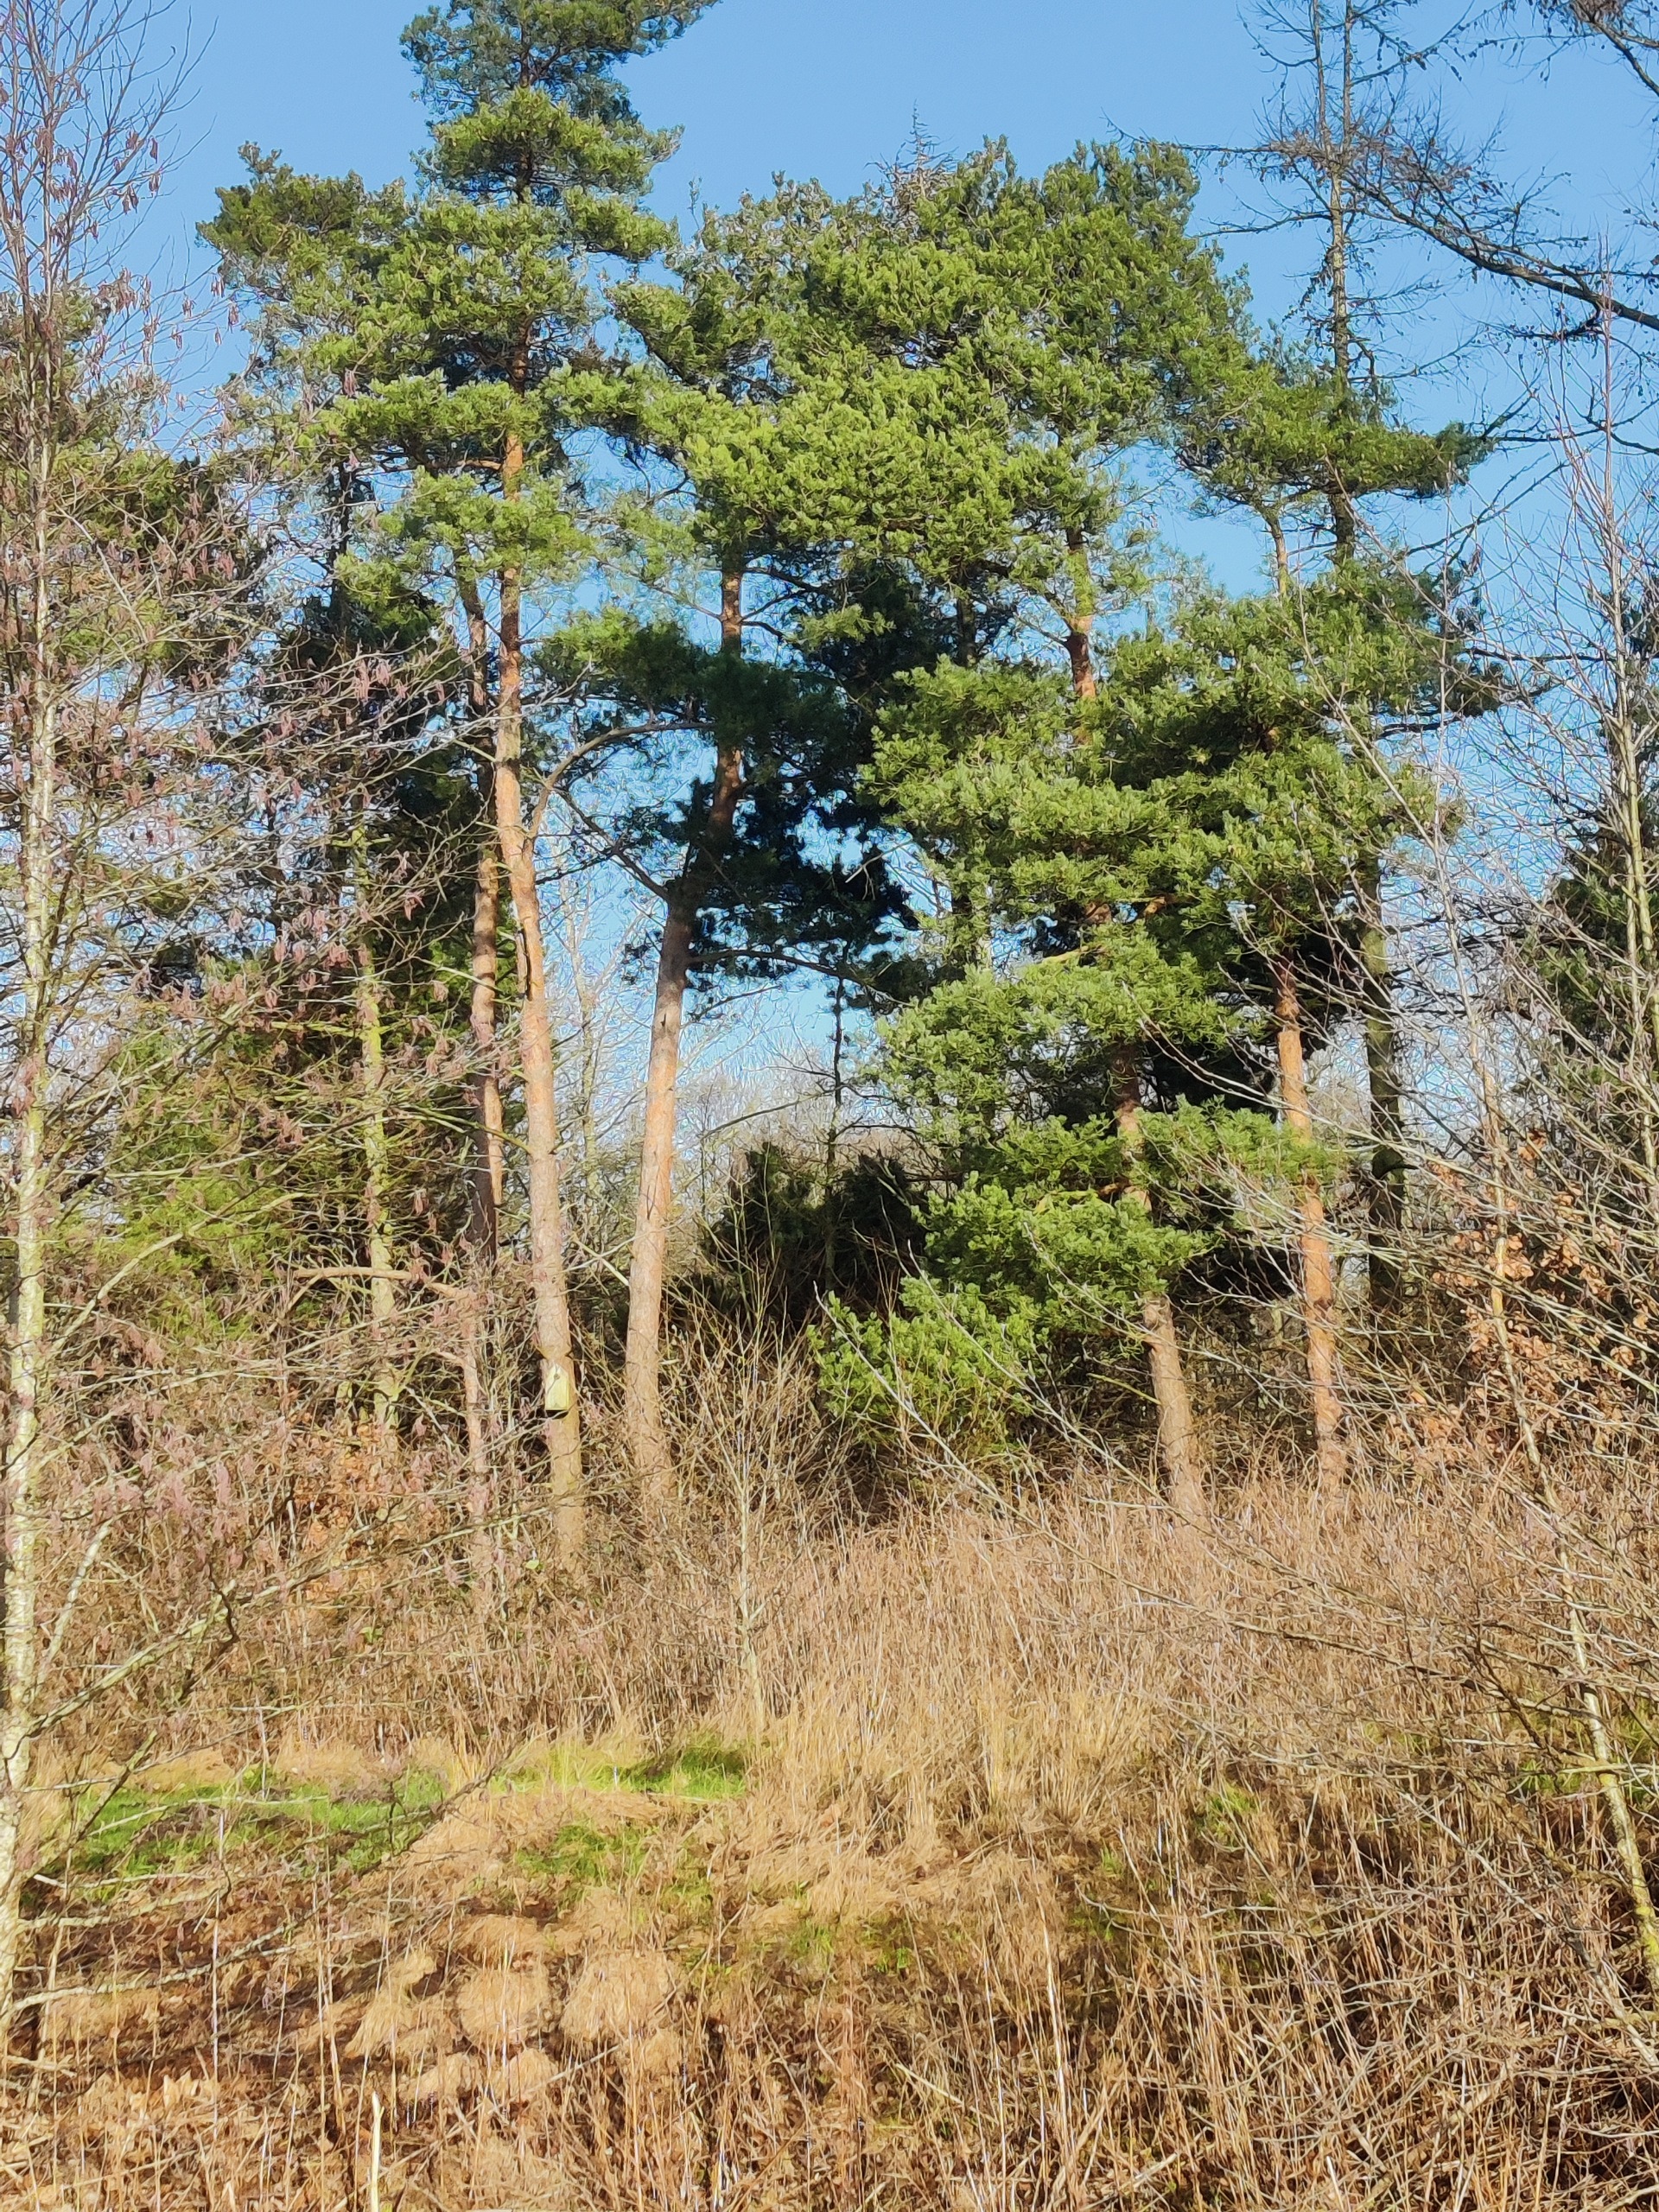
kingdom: Plantae
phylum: Tracheophyta
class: Pinopsida
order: Pinales
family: Pinaceae
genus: Pinus
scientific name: Pinus sylvestris
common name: Skov-fyr
